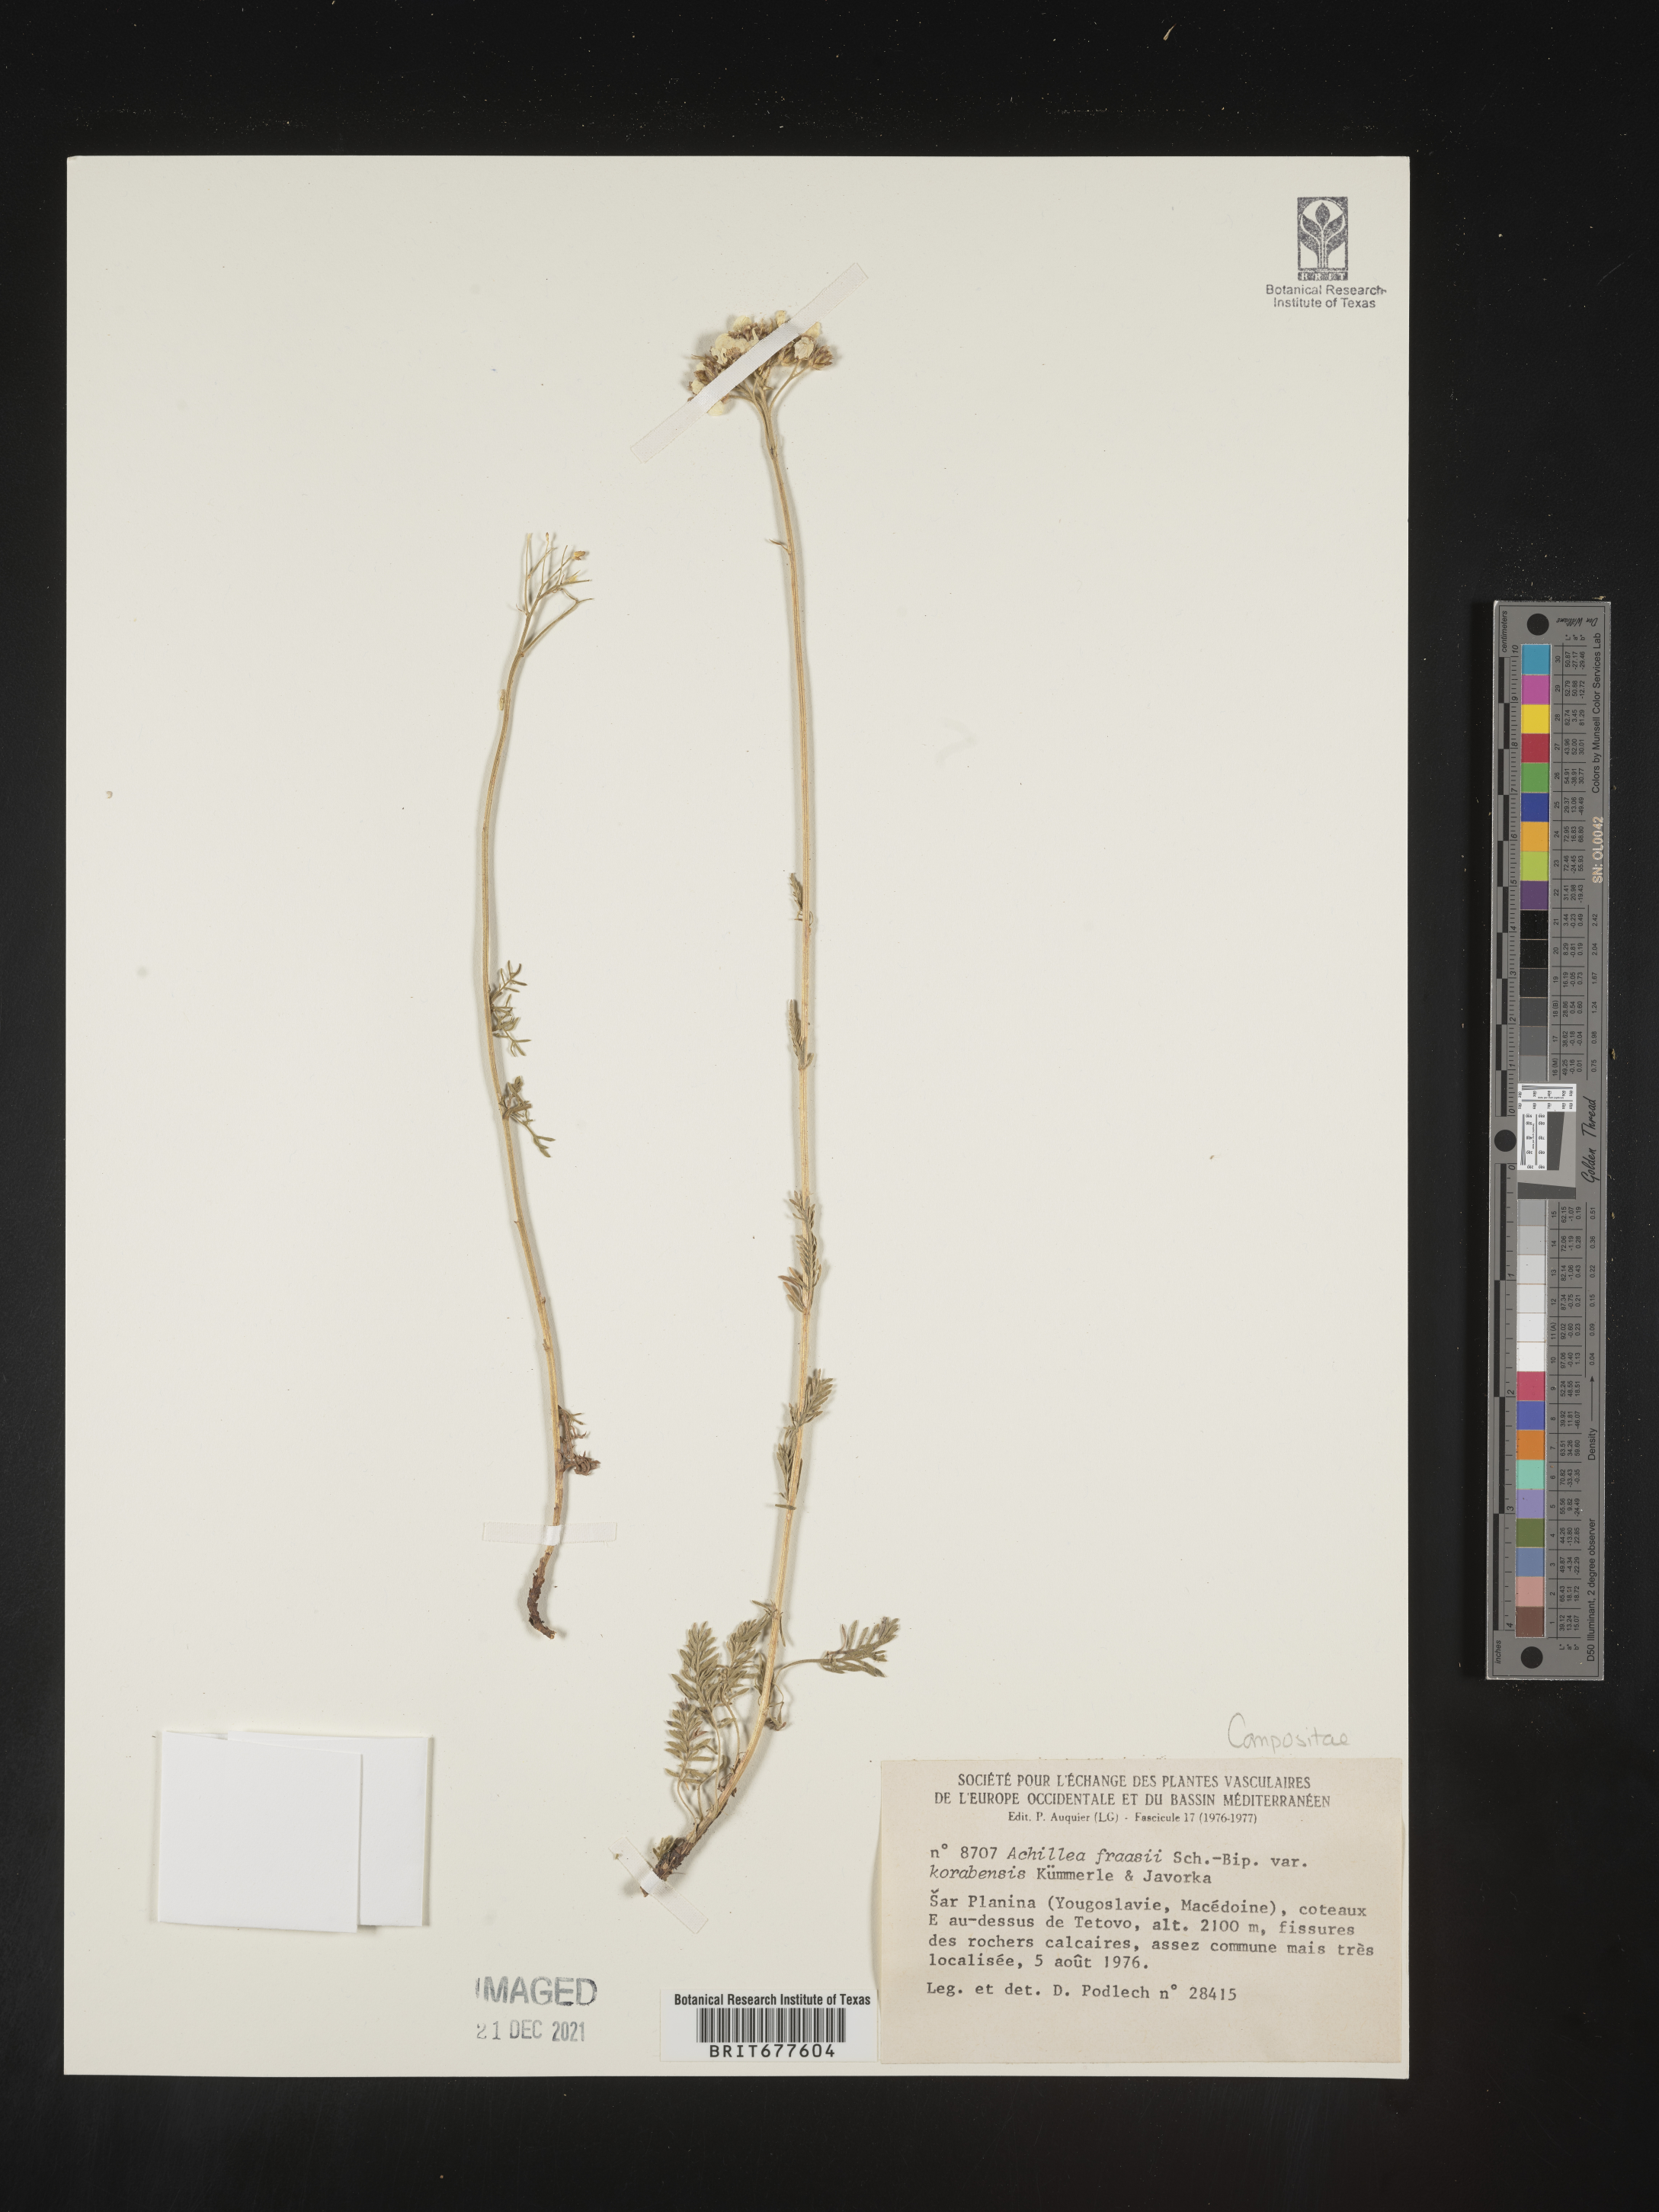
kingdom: Plantae
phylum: Tracheophyta
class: Magnoliopsida
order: Asterales
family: Asteraceae
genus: Achillea
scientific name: Achillea millefolium
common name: Yarrow
